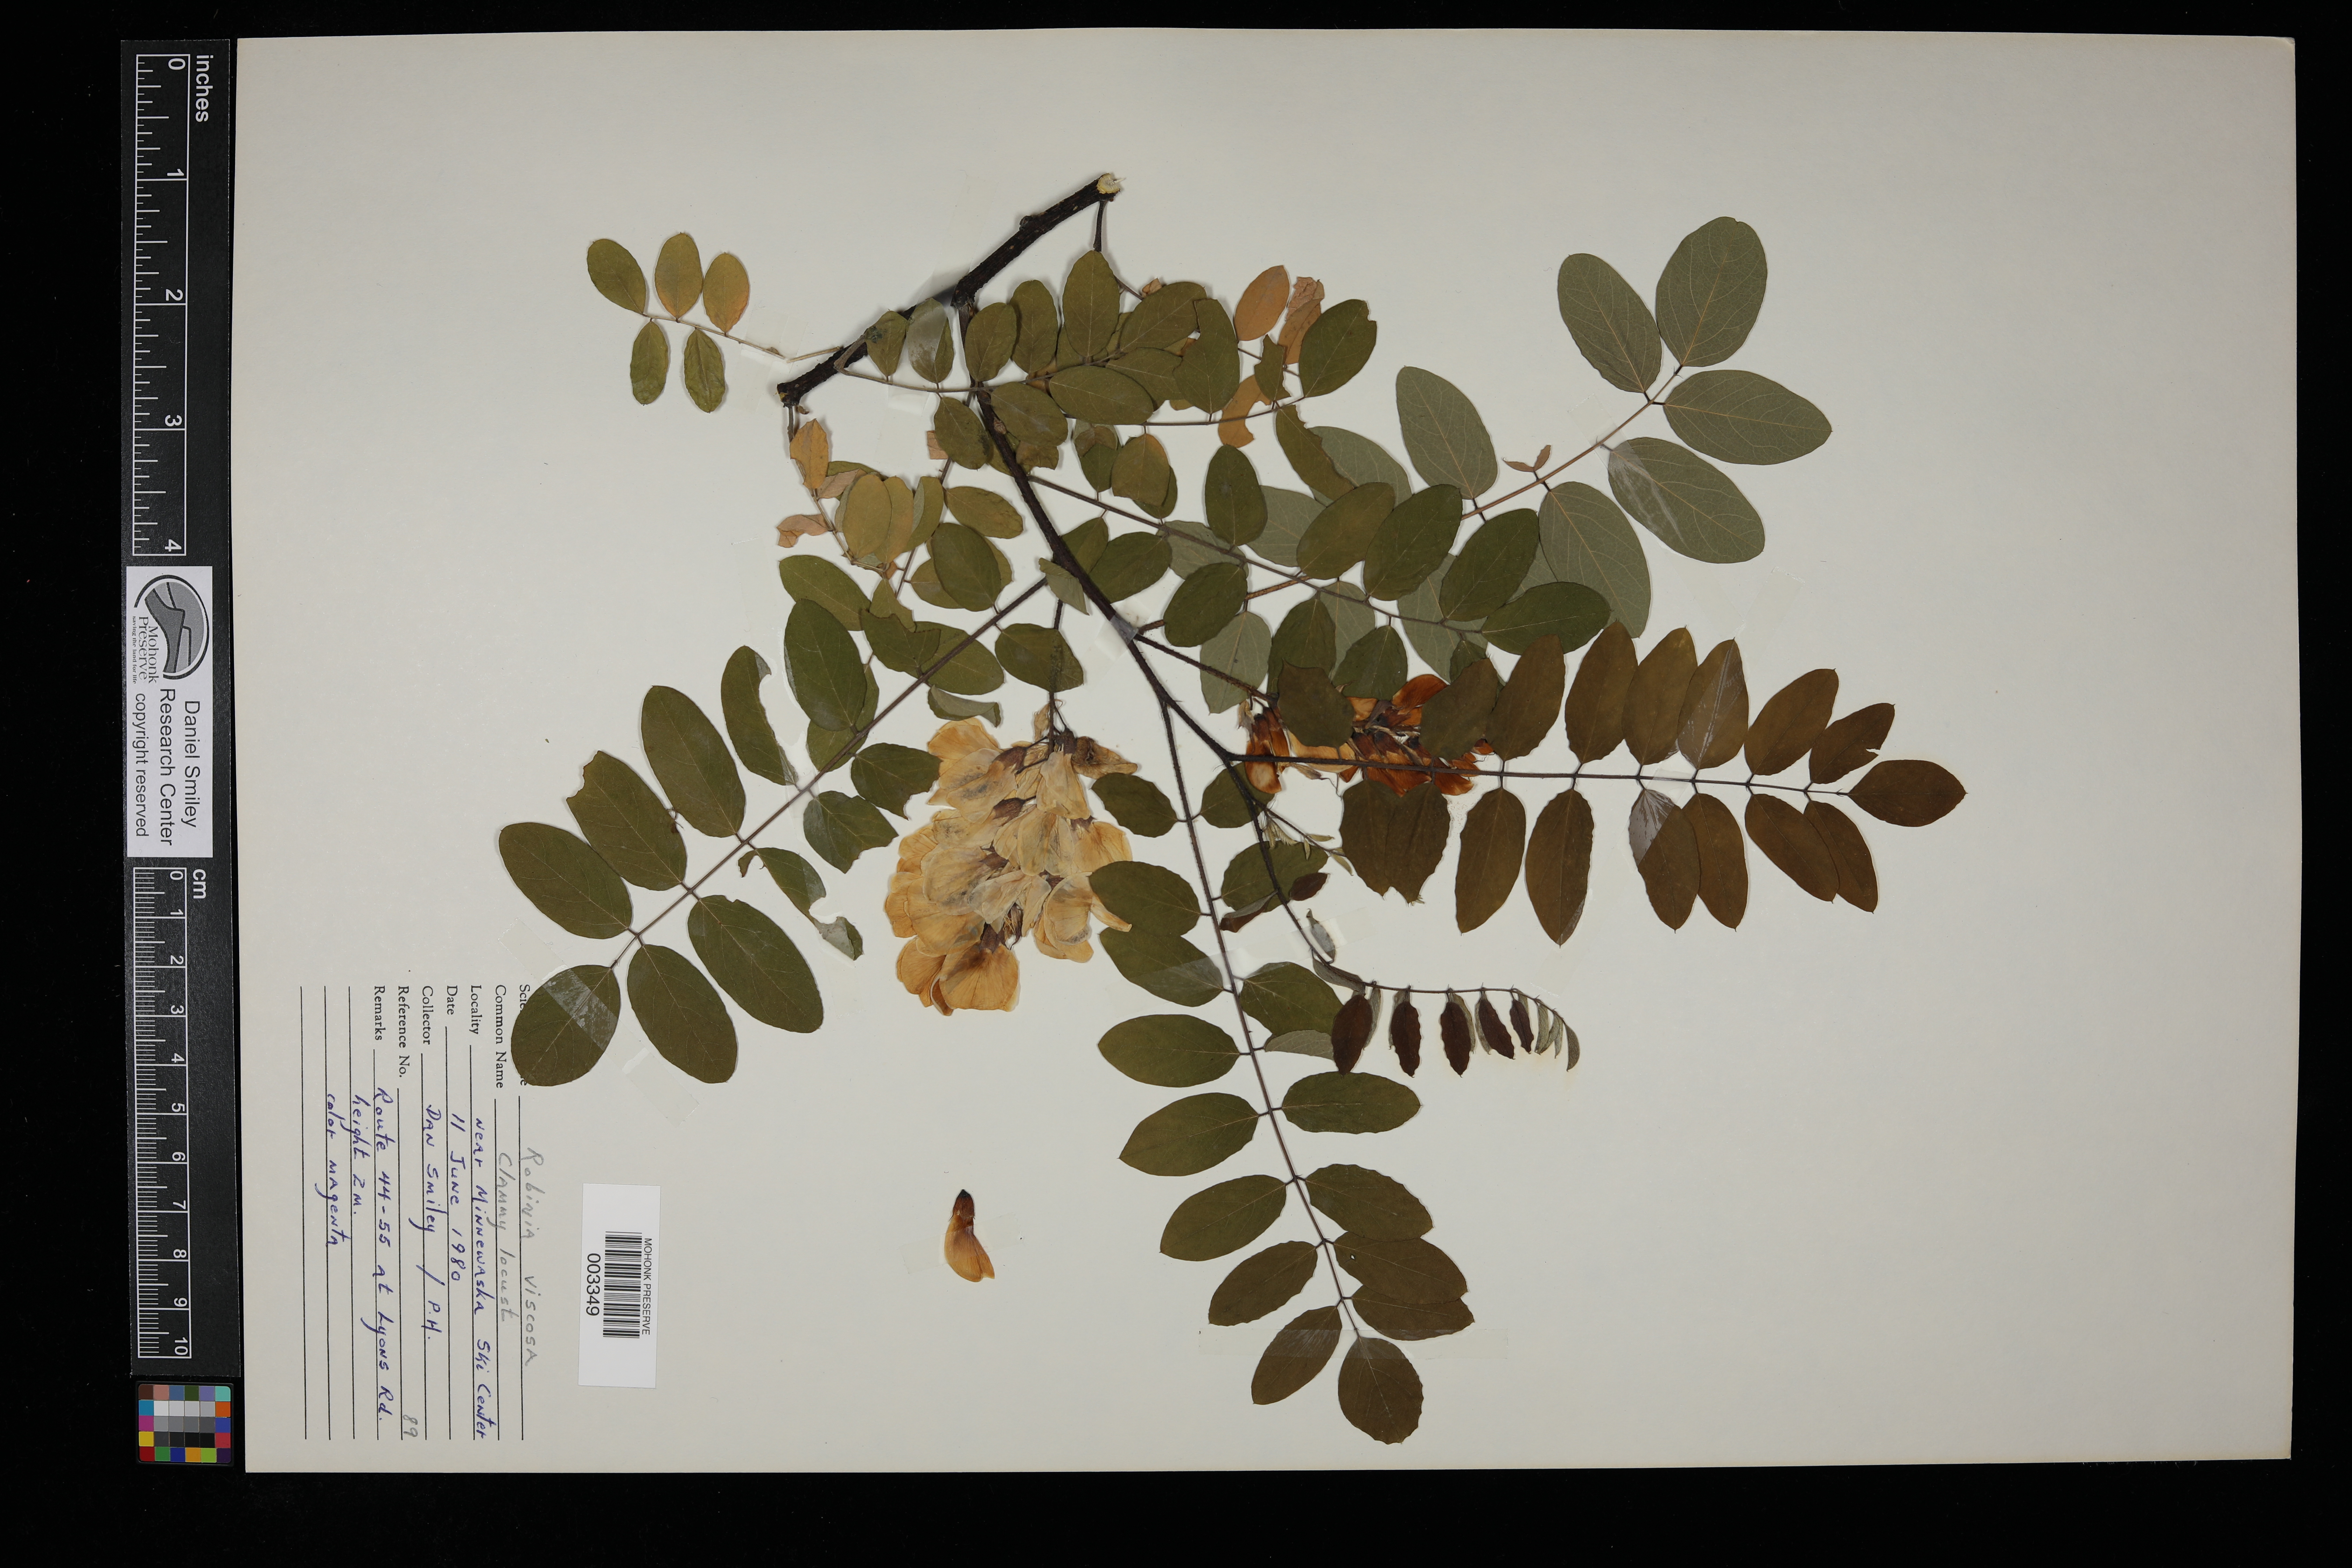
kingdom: Plantae
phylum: Tracheophyta
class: Magnoliopsida
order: Fabales
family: Fabaceae
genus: Robinia
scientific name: Robinia viscosa
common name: Clammy locust
